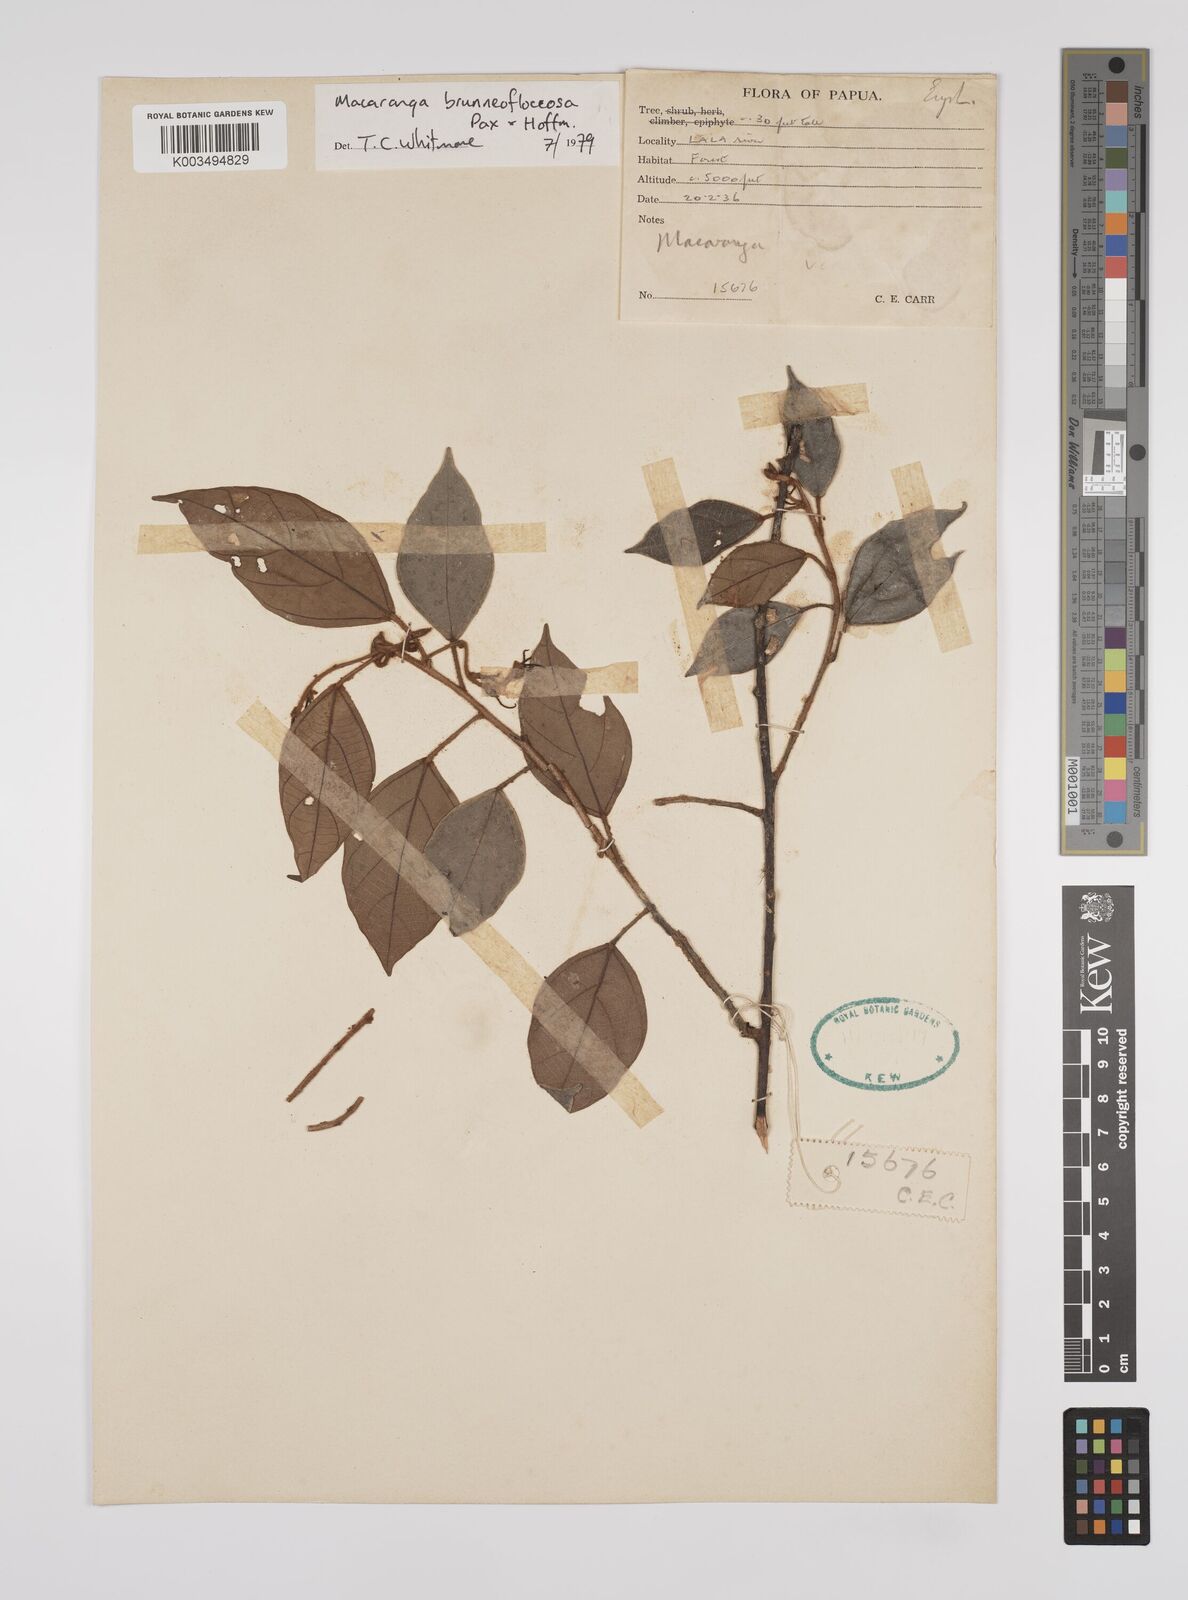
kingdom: Plantae
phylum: Tracheophyta
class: Magnoliopsida
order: Malpighiales
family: Euphorbiaceae
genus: Macaranga
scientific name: Macaranga brunneofloccosa
